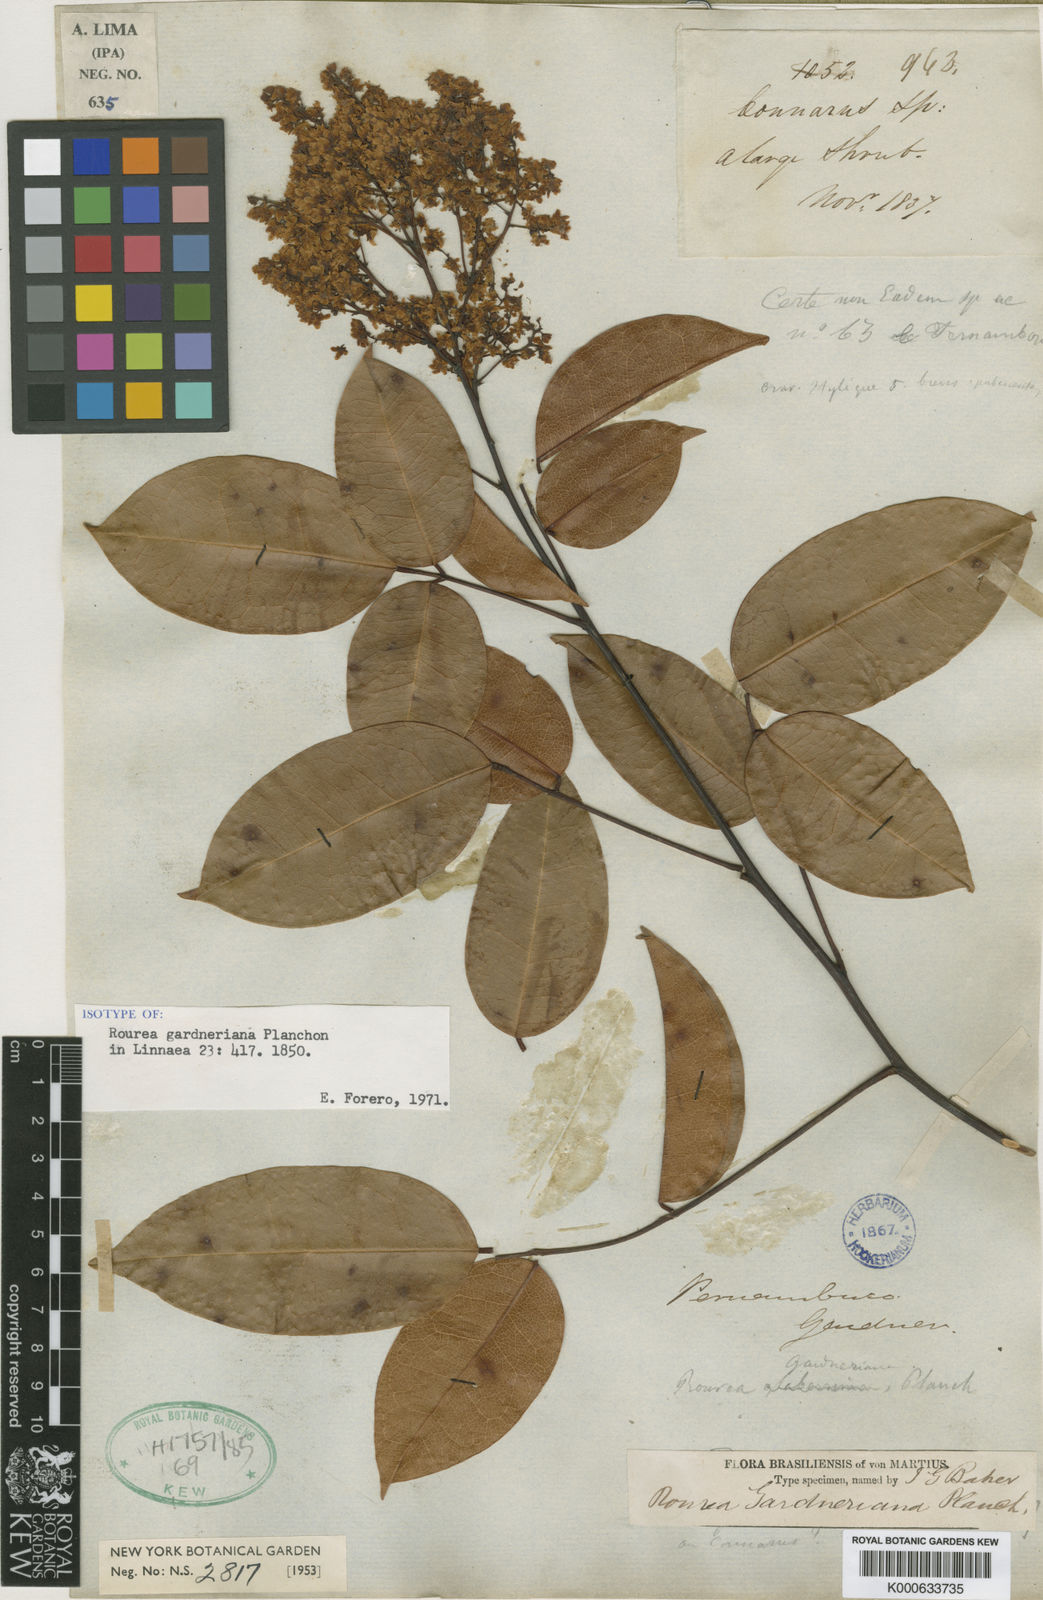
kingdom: Plantae
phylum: Tracheophyta
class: Magnoliopsida
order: Oxalidales
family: Connaraceae
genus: Rourea
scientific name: Rourea gardneriana
